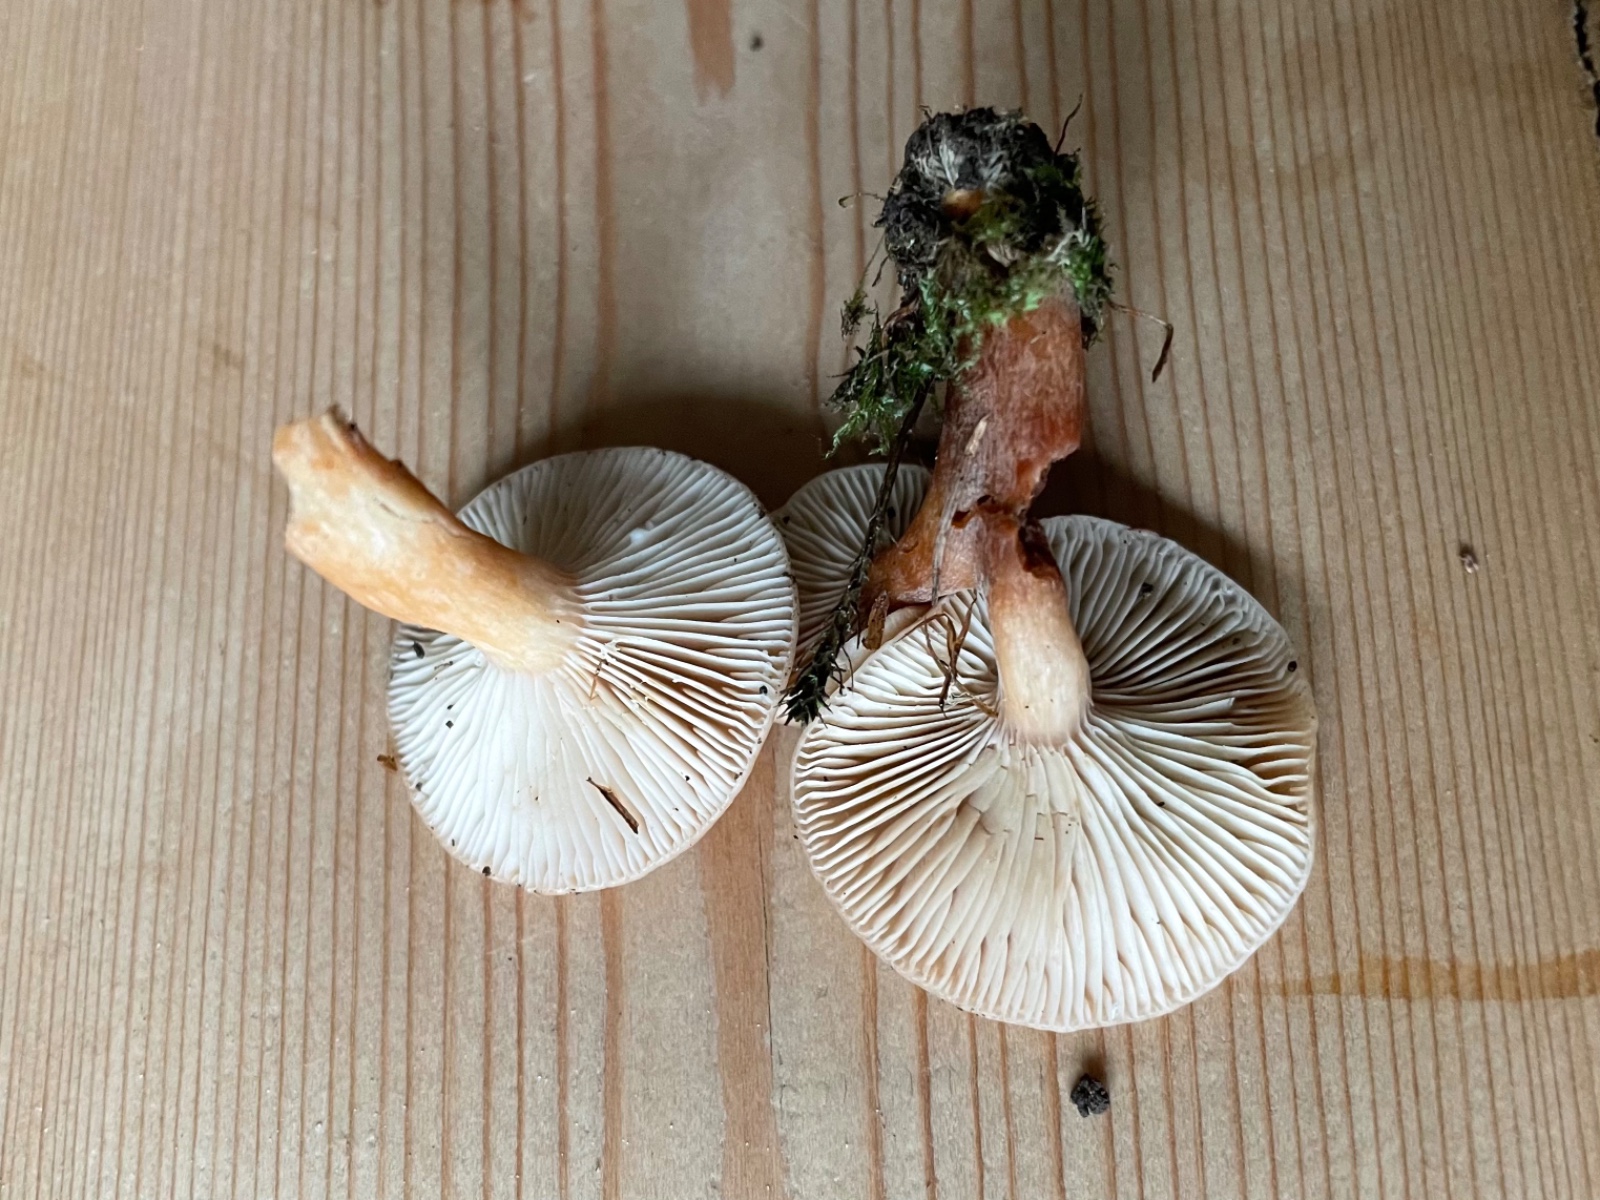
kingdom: Fungi
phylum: Basidiomycota
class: Agaricomycetes
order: Russulales
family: Russulaceae
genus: Lactarius
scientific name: Lactarius subdulcis
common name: sødlig mælkehat
